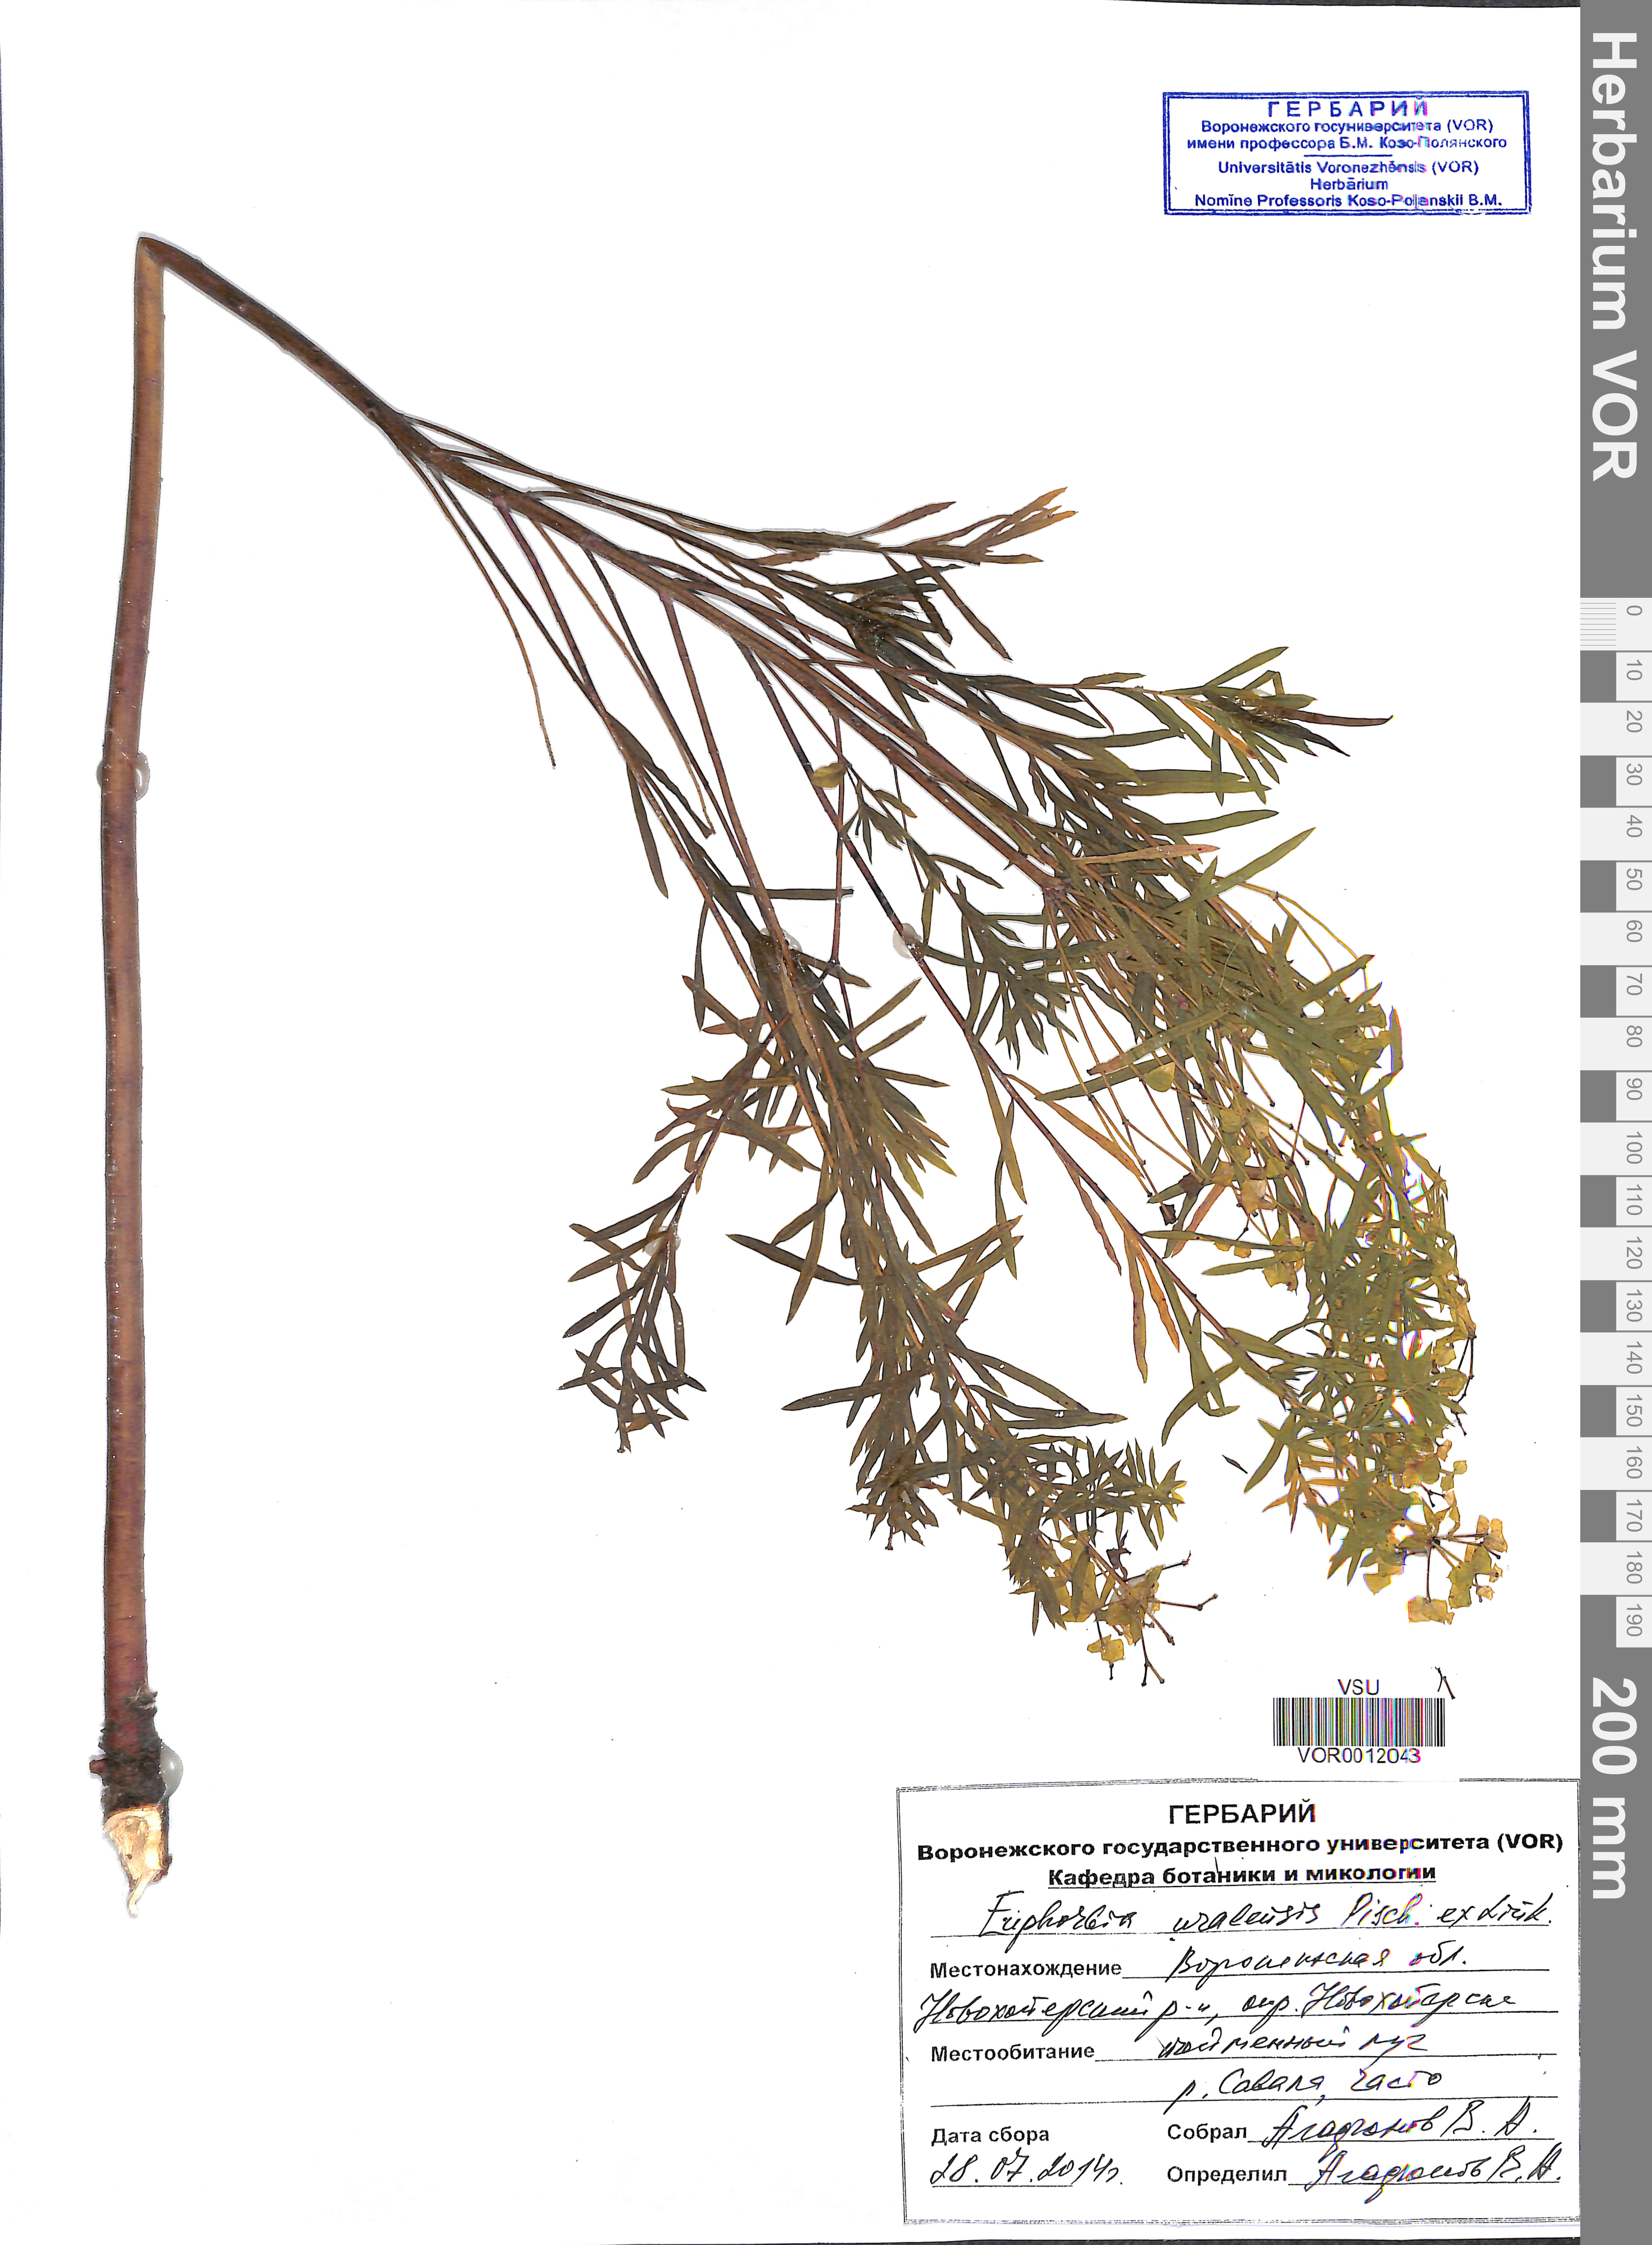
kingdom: Plantae
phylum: Tracheophyta
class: Magnoliopsida
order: Malpighiales
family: Euphorbiaceae
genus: Euphorbia
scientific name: Euphorbia uralensis
